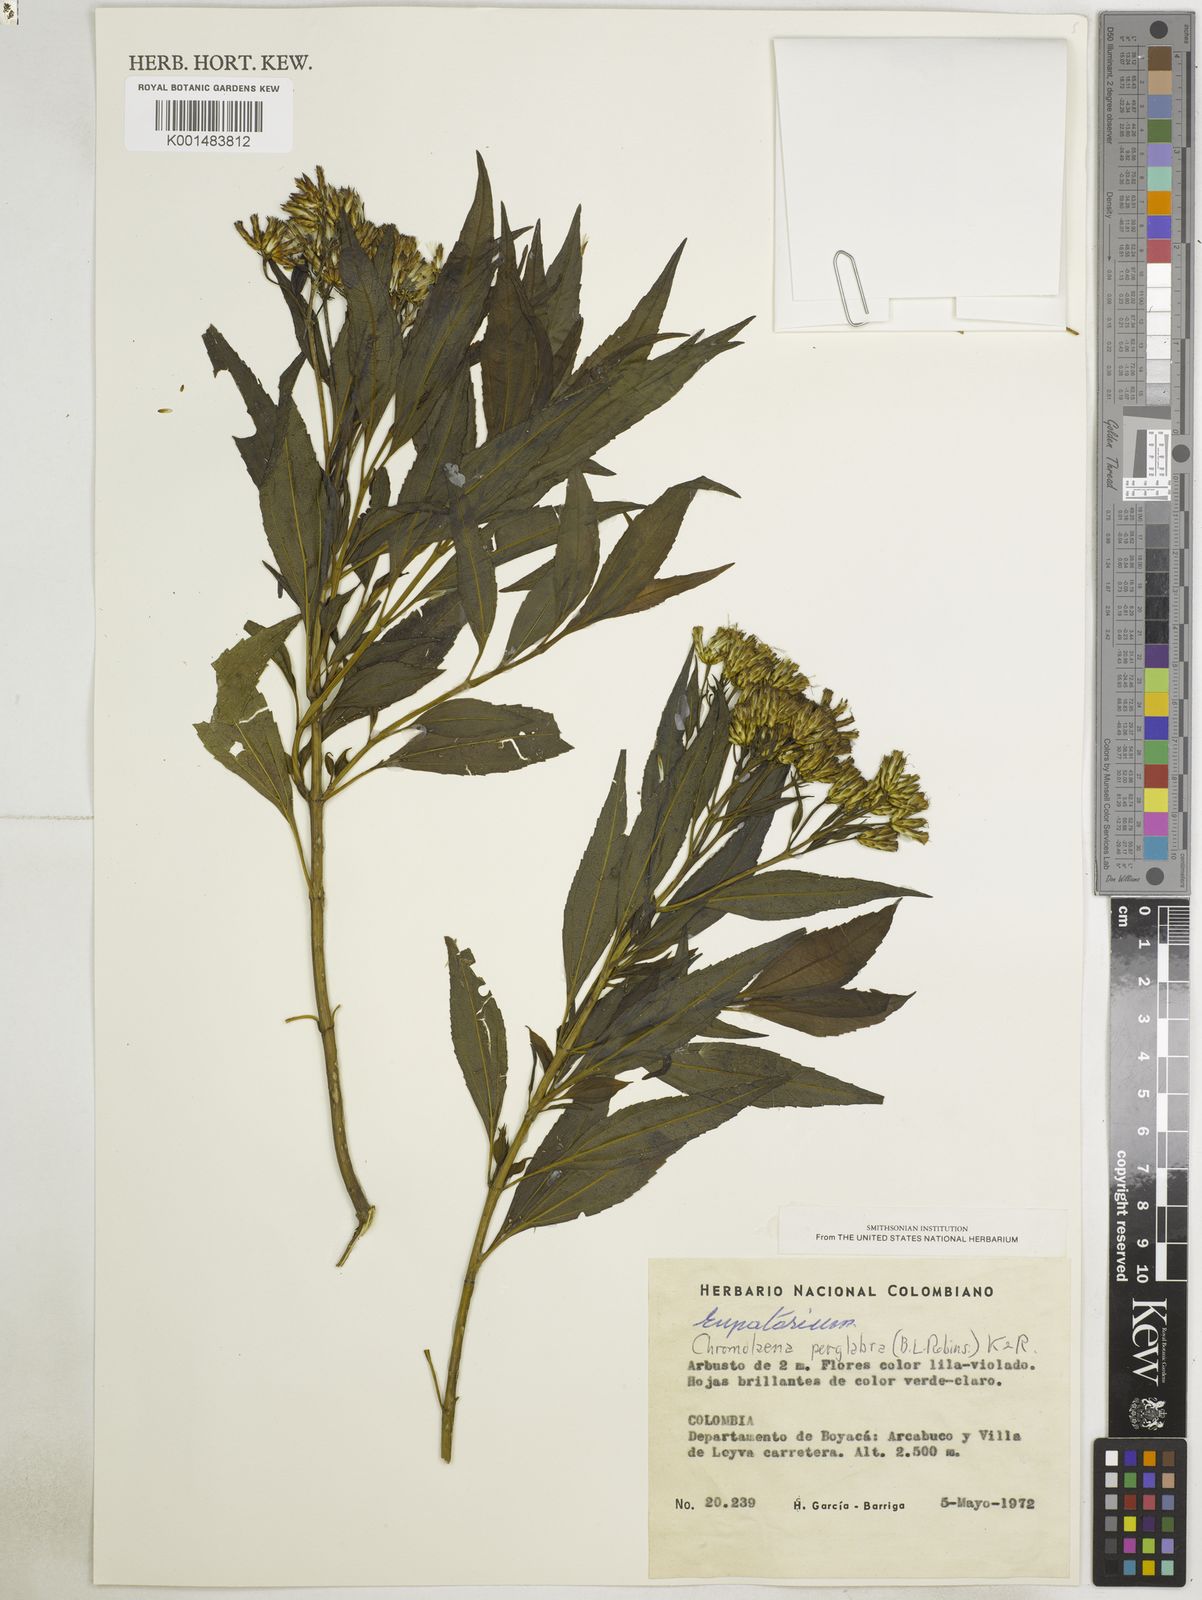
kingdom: Plantae
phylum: Tracheophyta
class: Magnoliopsida
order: Asterales
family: Asteraceae
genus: Chromolaena
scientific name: Chromolaena perglabra
